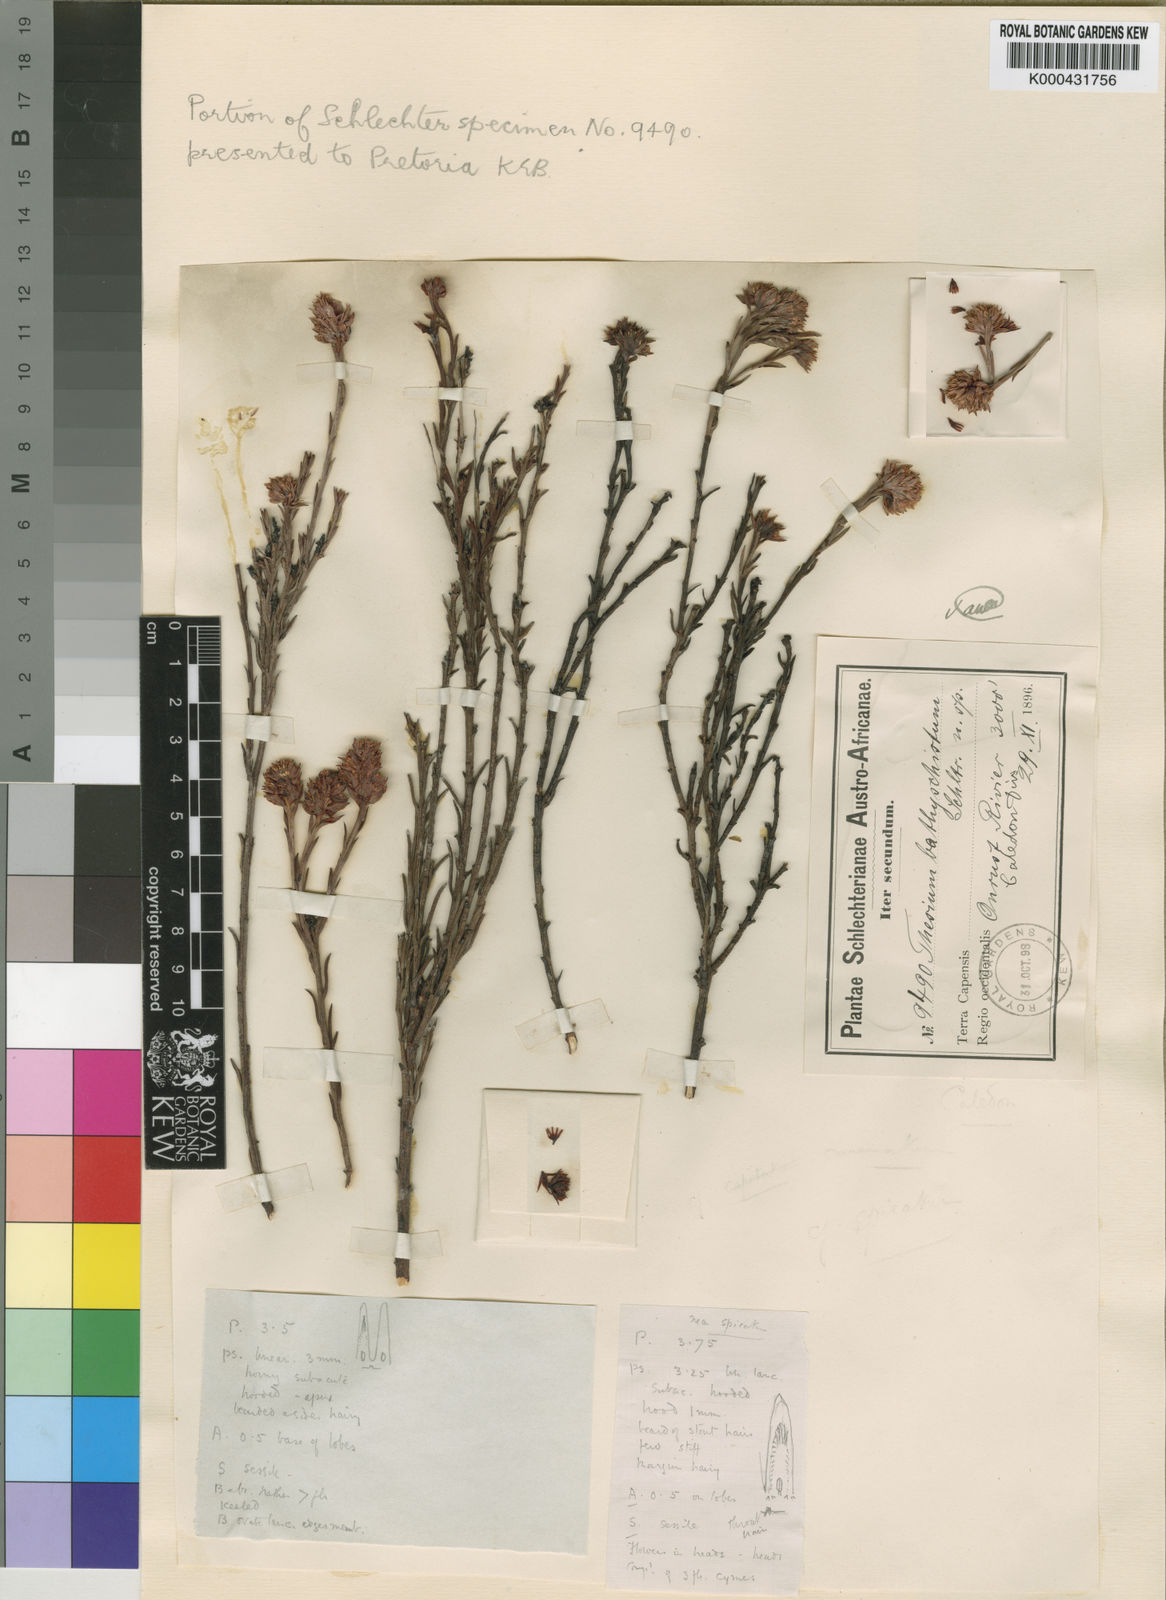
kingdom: Plantae
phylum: Tracheophyta
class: Magnoliopsida
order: Santalales
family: Thesiaceae
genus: Thesium
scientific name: Thesium bathyschistum
